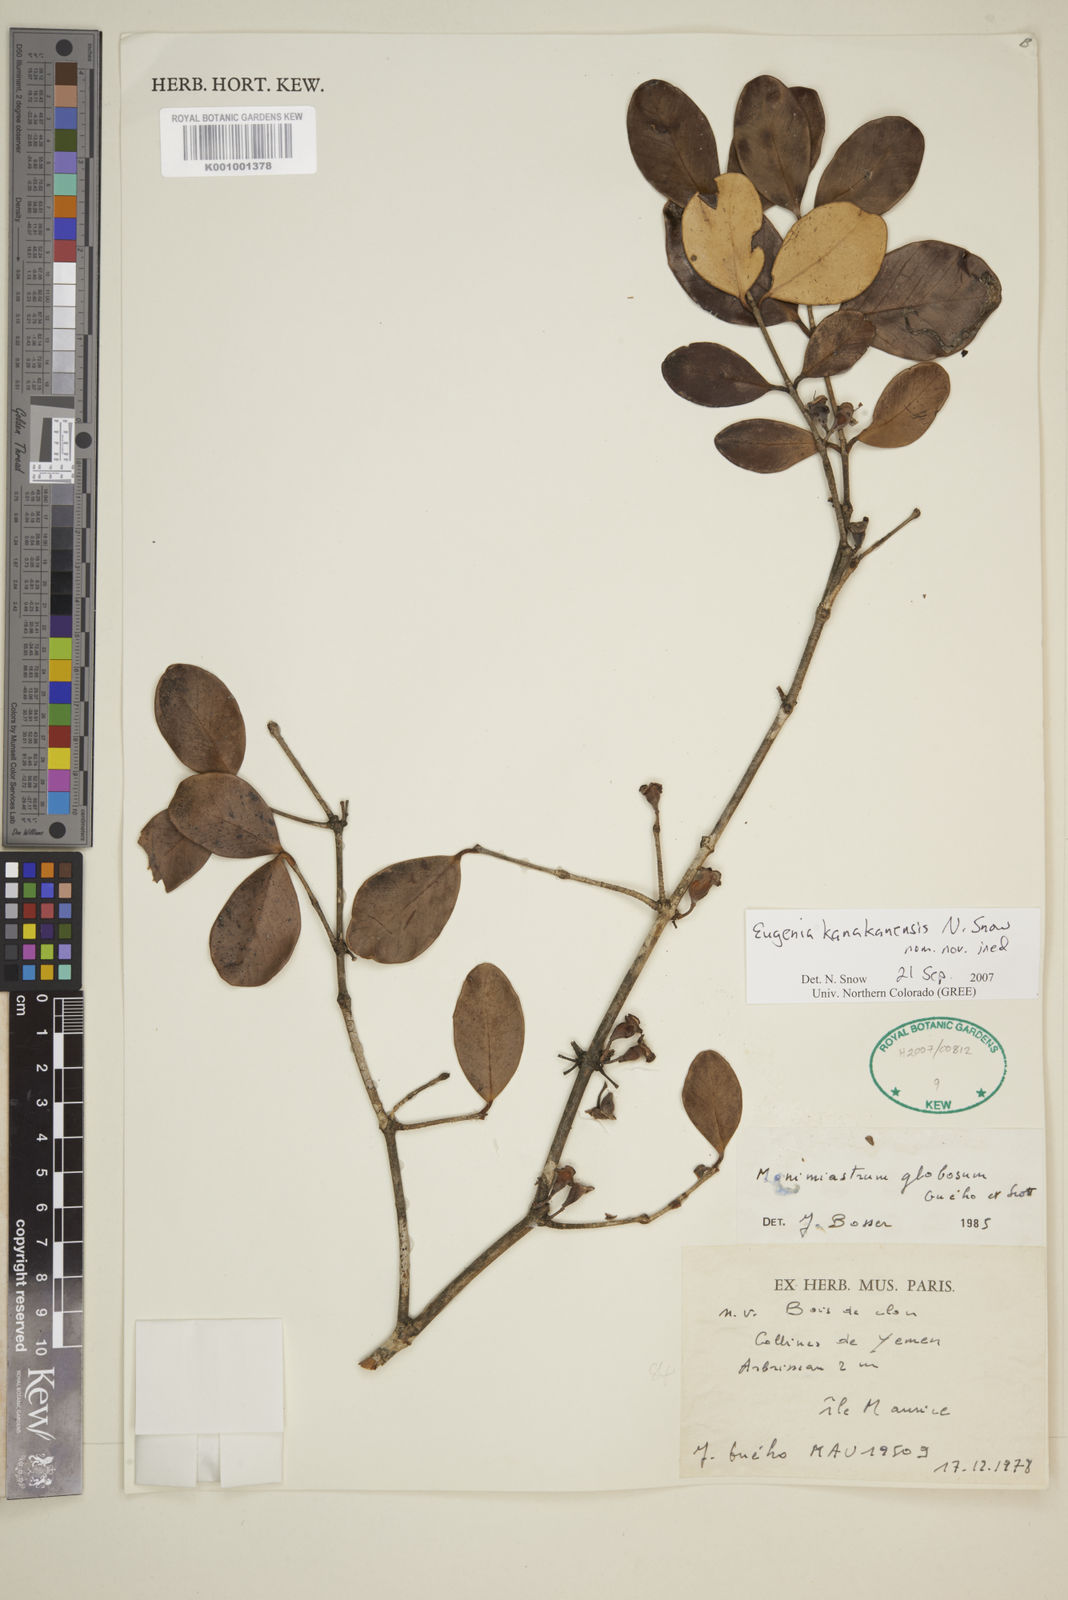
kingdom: Plantae
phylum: Tracheophyta
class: Magnoliopsida
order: Myrtales
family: Myrtaceae
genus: Eugenia
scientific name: Eugenia kanakana
